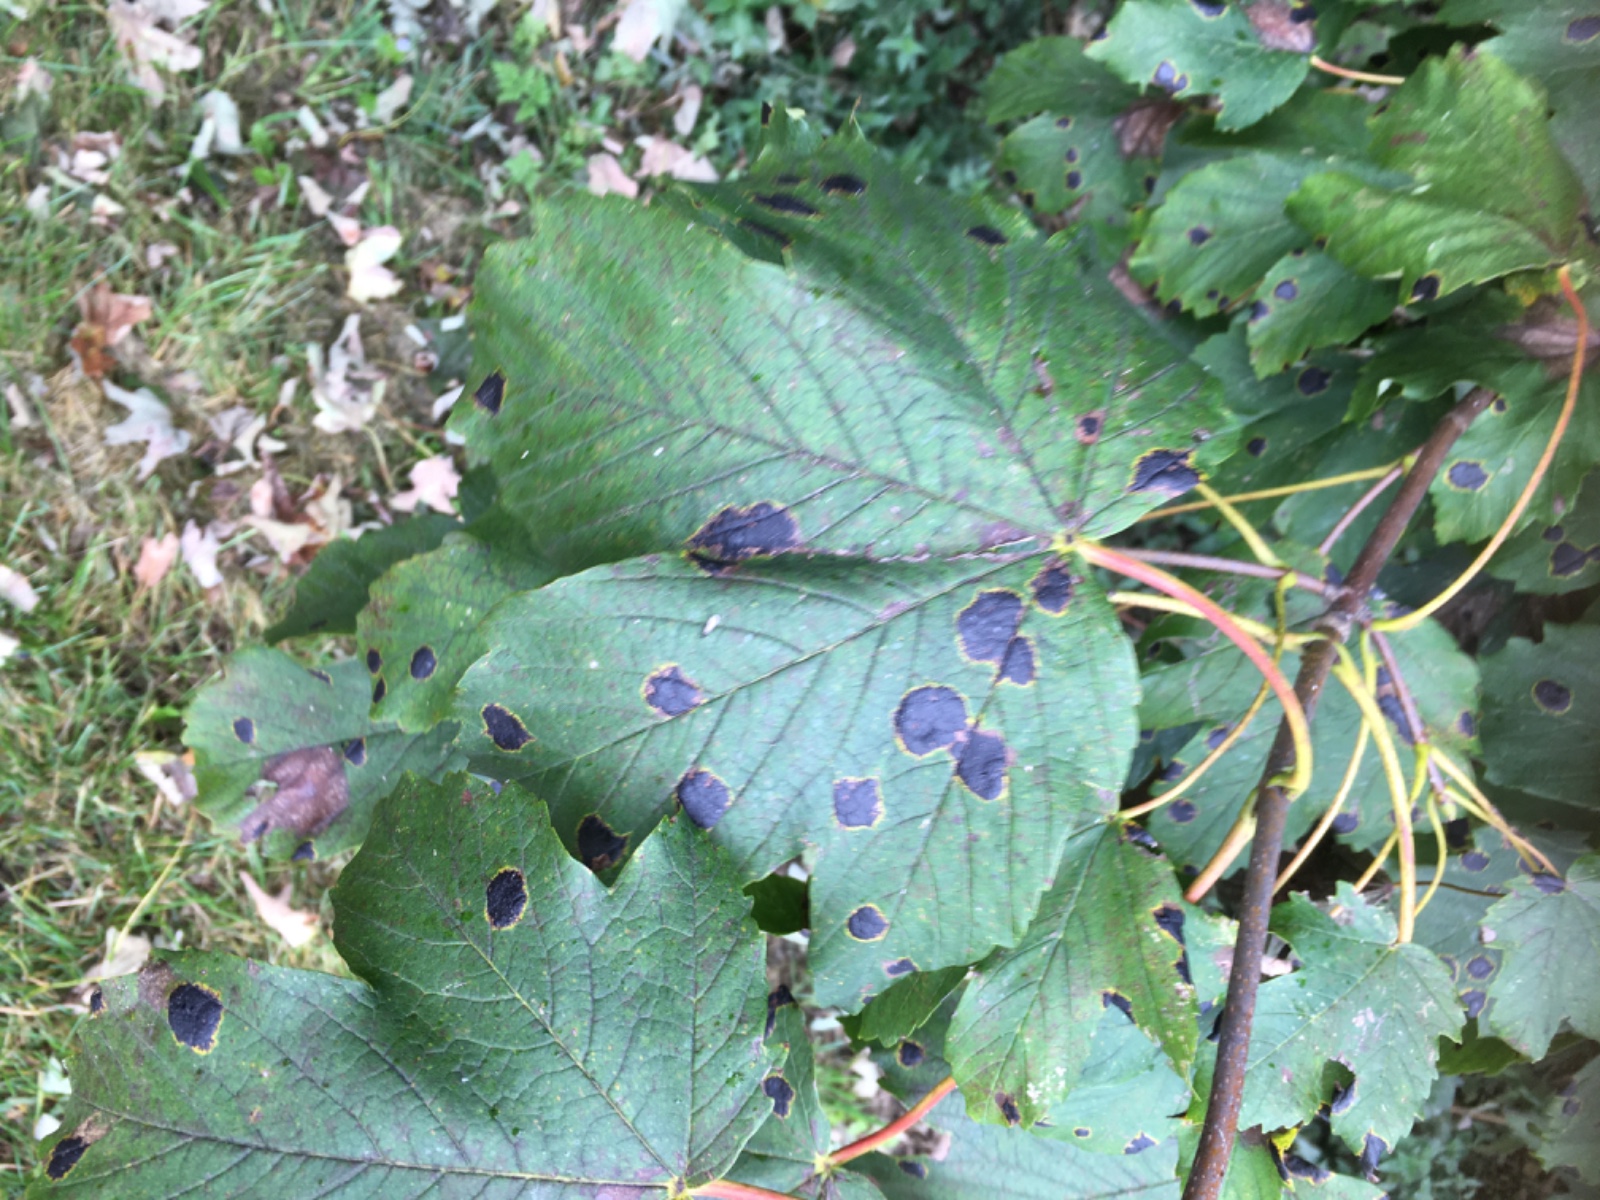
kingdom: Fungi
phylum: Ascomycota
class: Leotiomycetes
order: Rhytismatales
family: Rhytismataceae
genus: Rhytisma
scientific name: Rhytisma acerinum
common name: ahorn-rynkeplet
